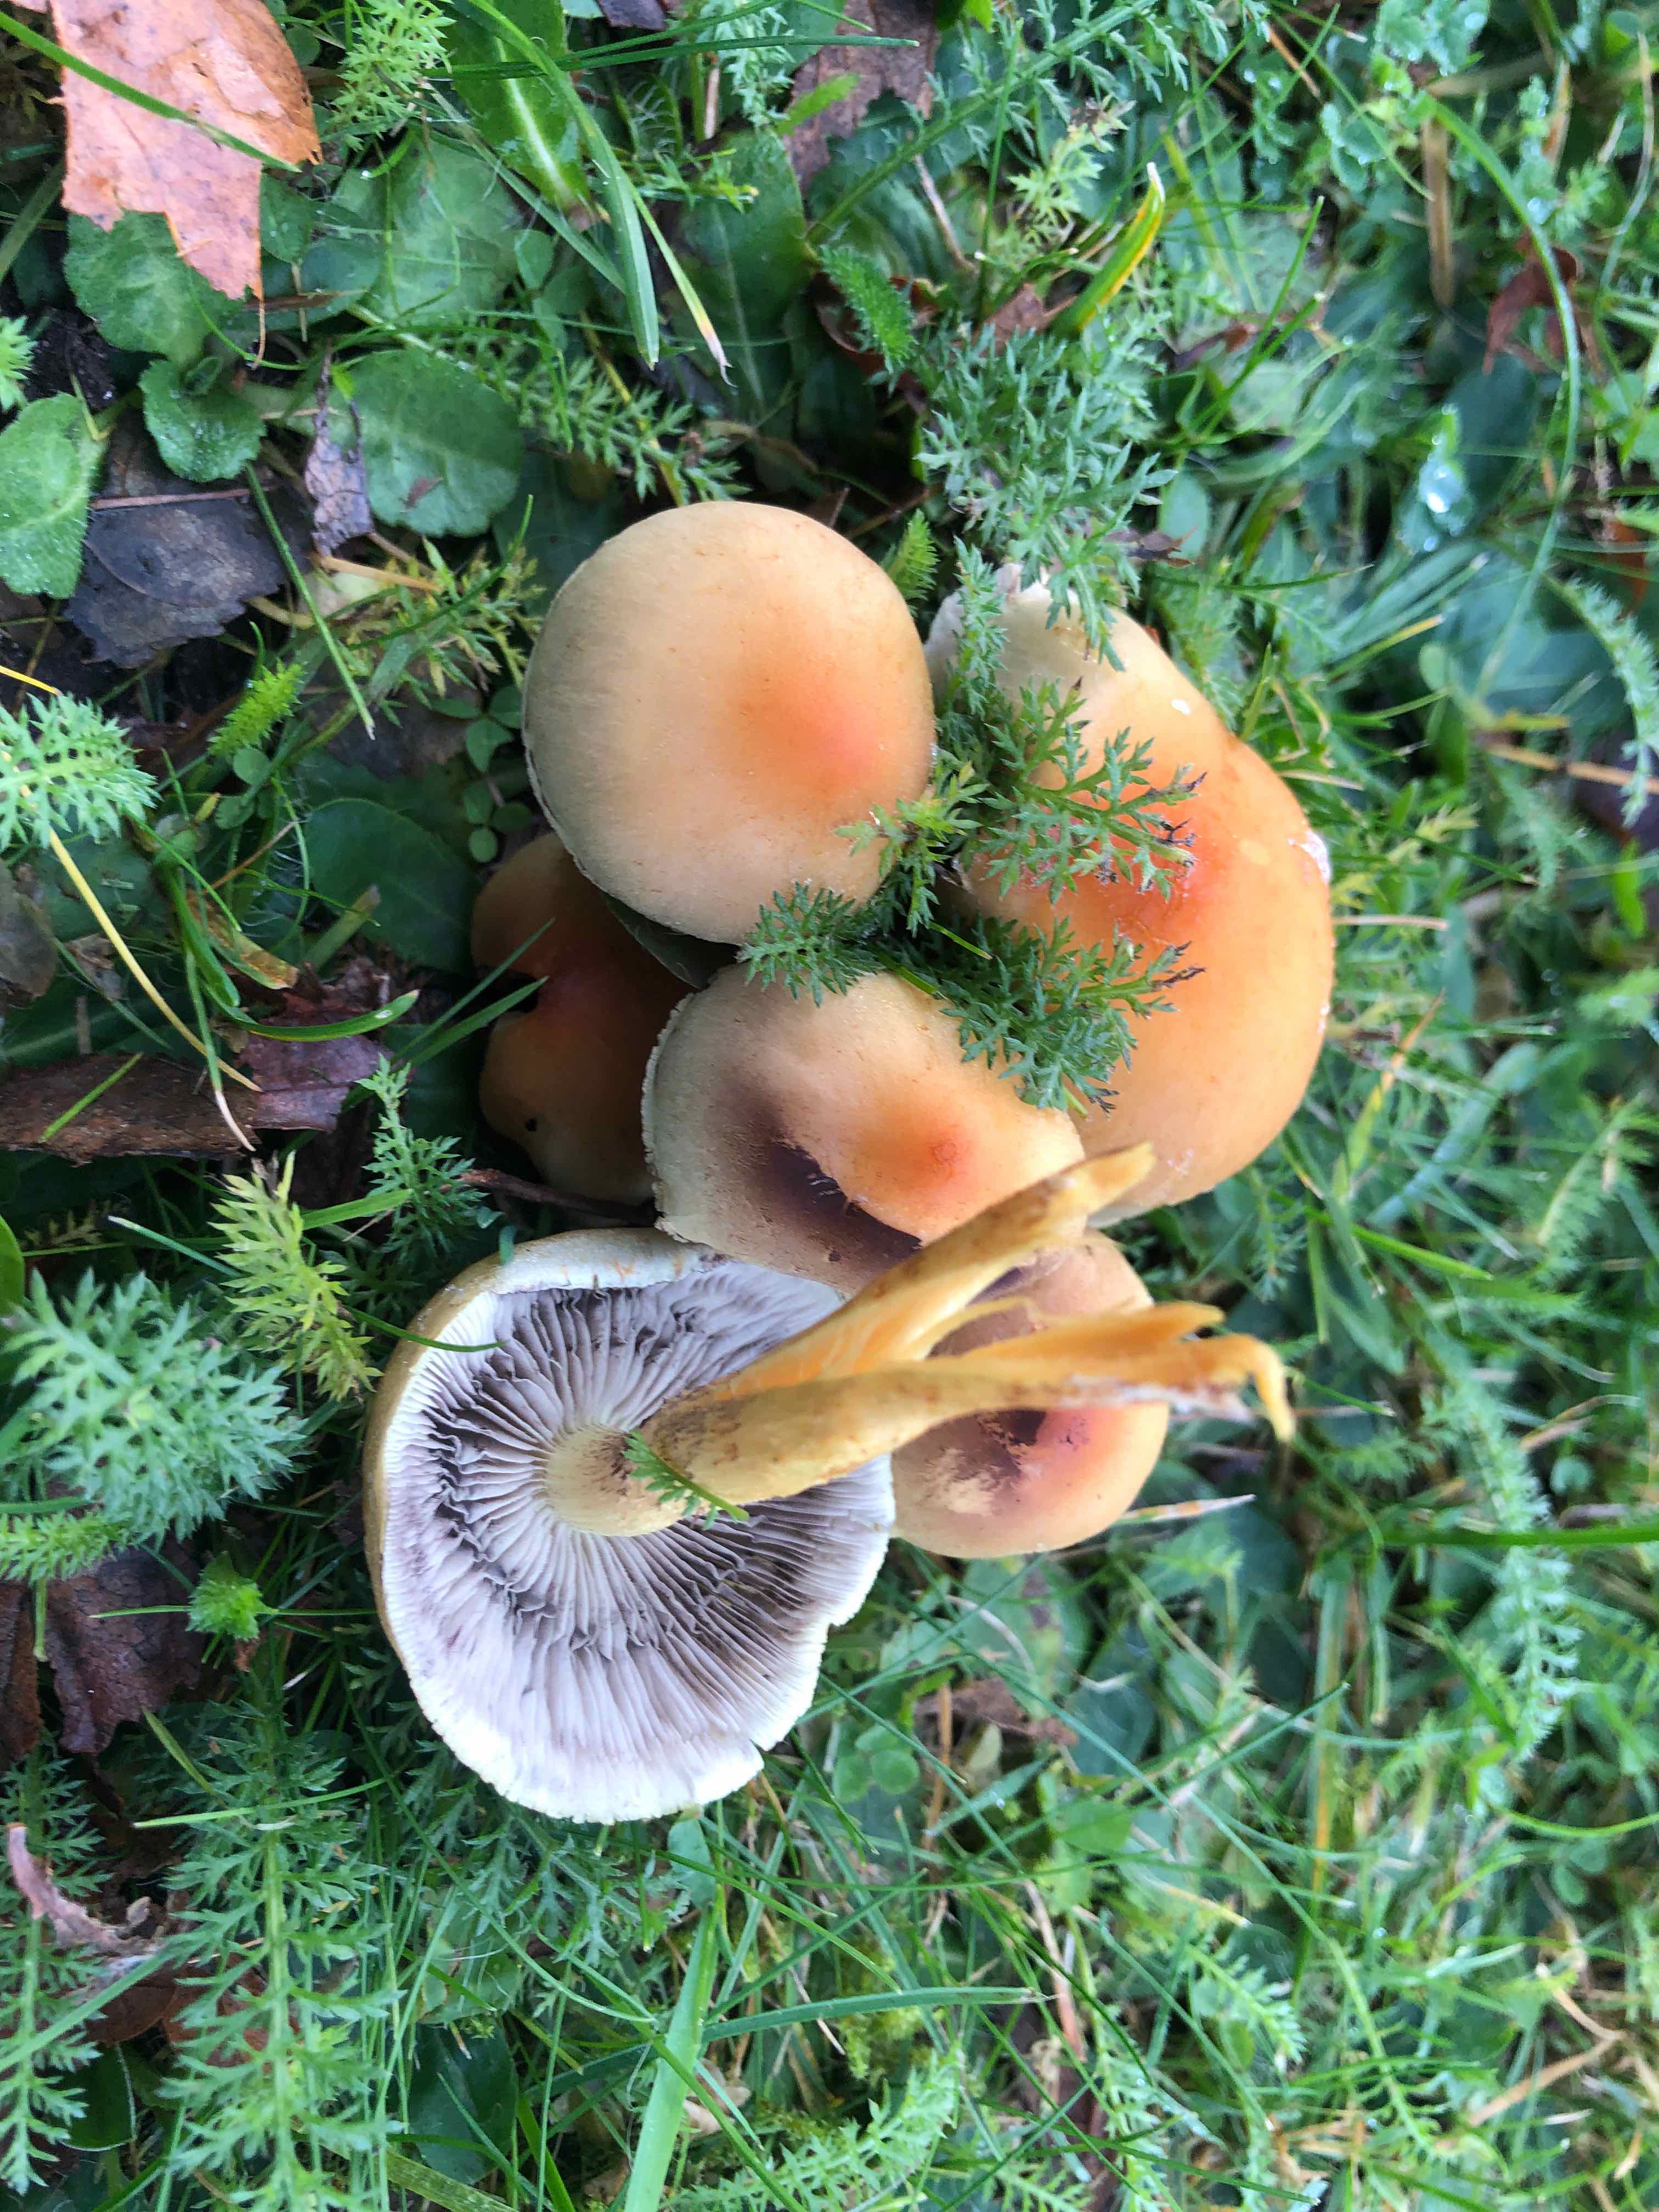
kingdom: Fungi
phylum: Basidiomycota
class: Agaricomycetes
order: Agaricales
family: Strophariaceae
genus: Hypholoma
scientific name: Hypholoma fasciculare
